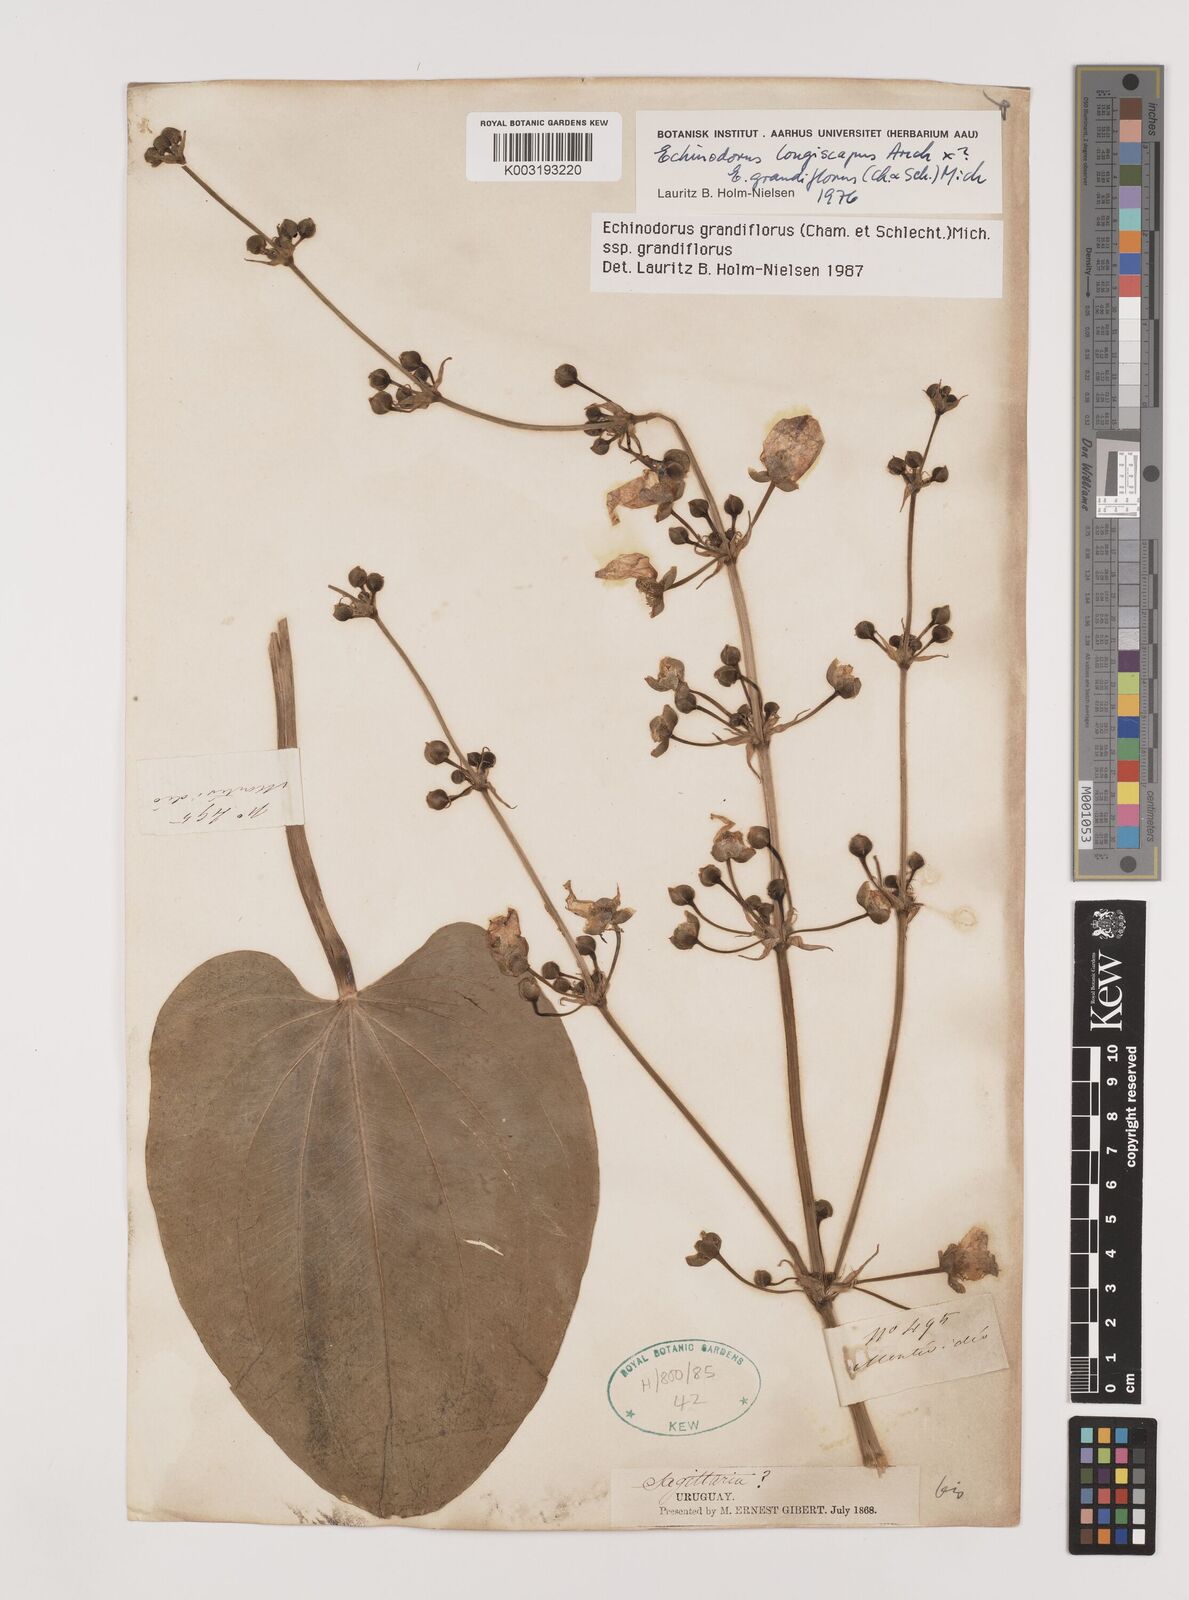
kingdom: Plantae
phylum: Tracheophyta
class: Liliopsida
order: Alismatales
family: Alismataceae
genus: Aquarius
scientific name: Aquarius grandiflorus
